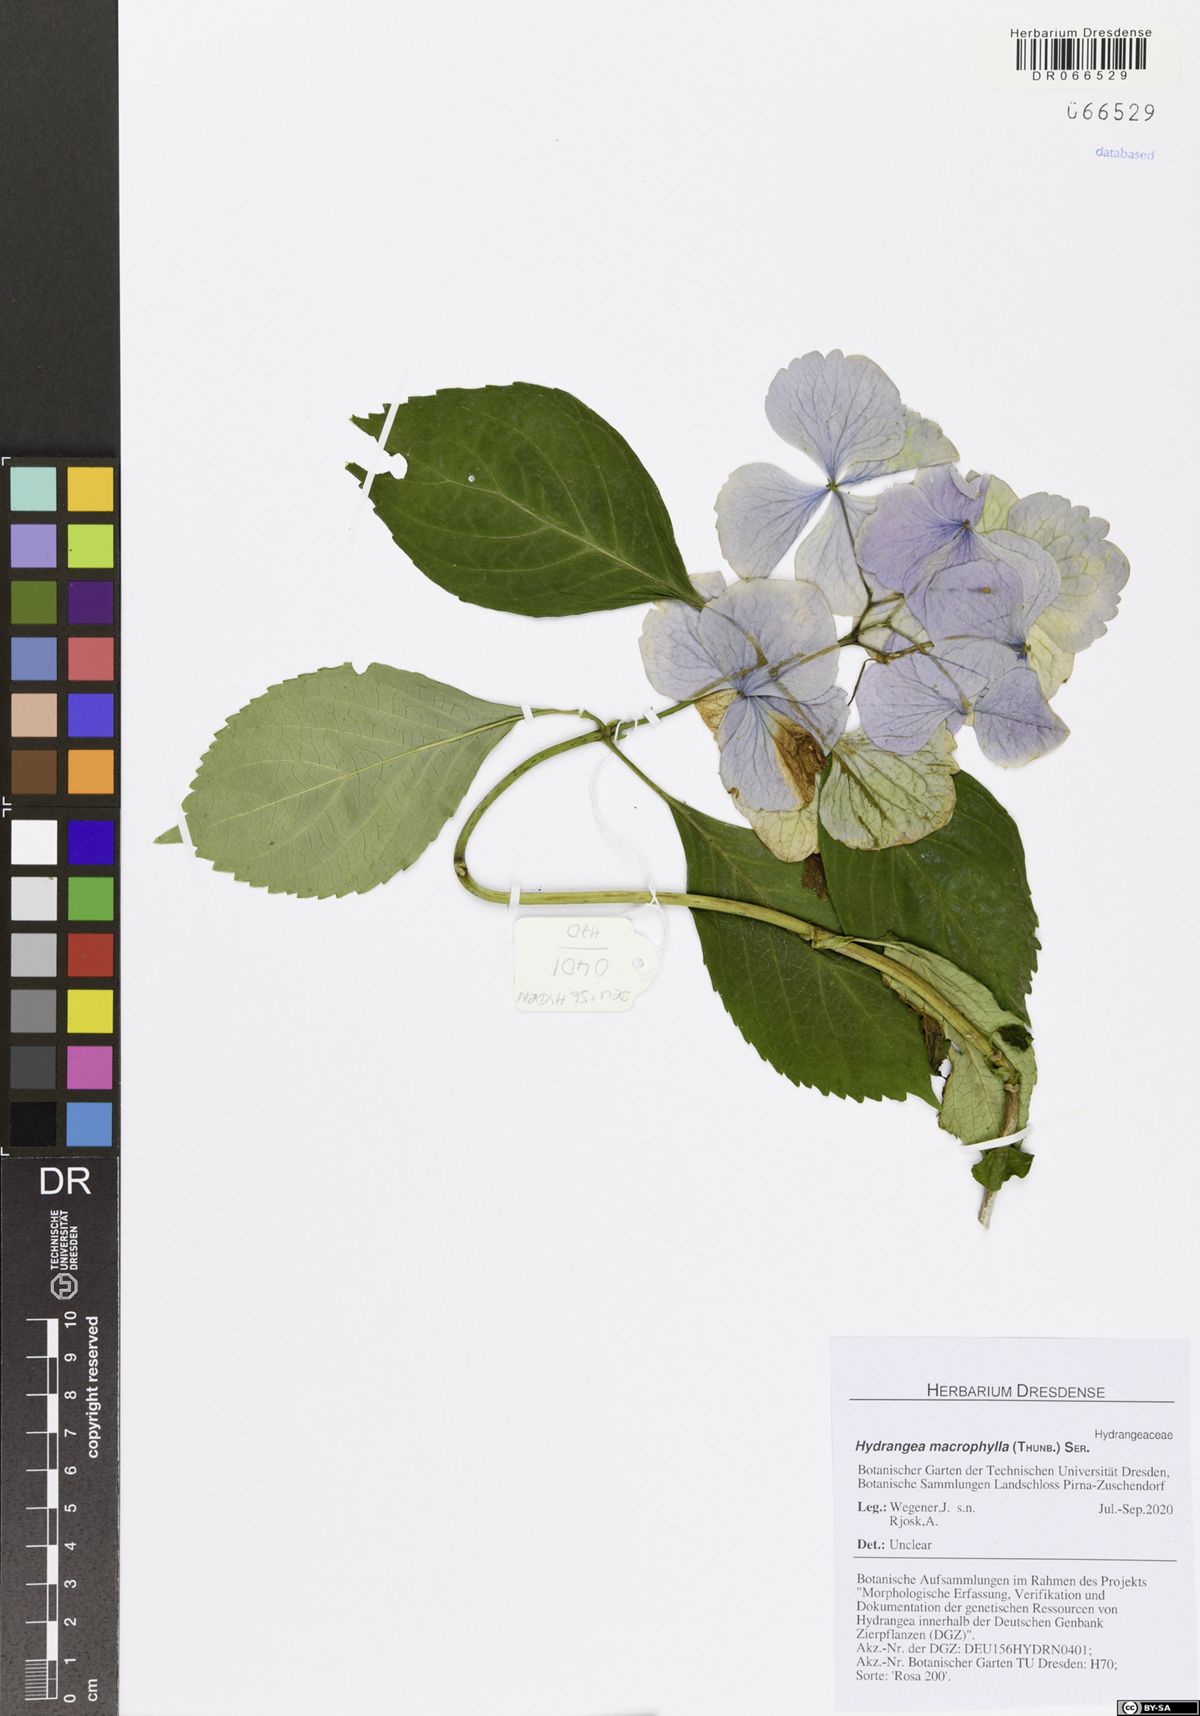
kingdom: Plantae
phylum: Tracheophyta
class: Magnoliopsida
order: Cornales
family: Hydrangeaceae
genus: Hydrangea
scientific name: Hydrangea macrophylla
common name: Hydrangea
